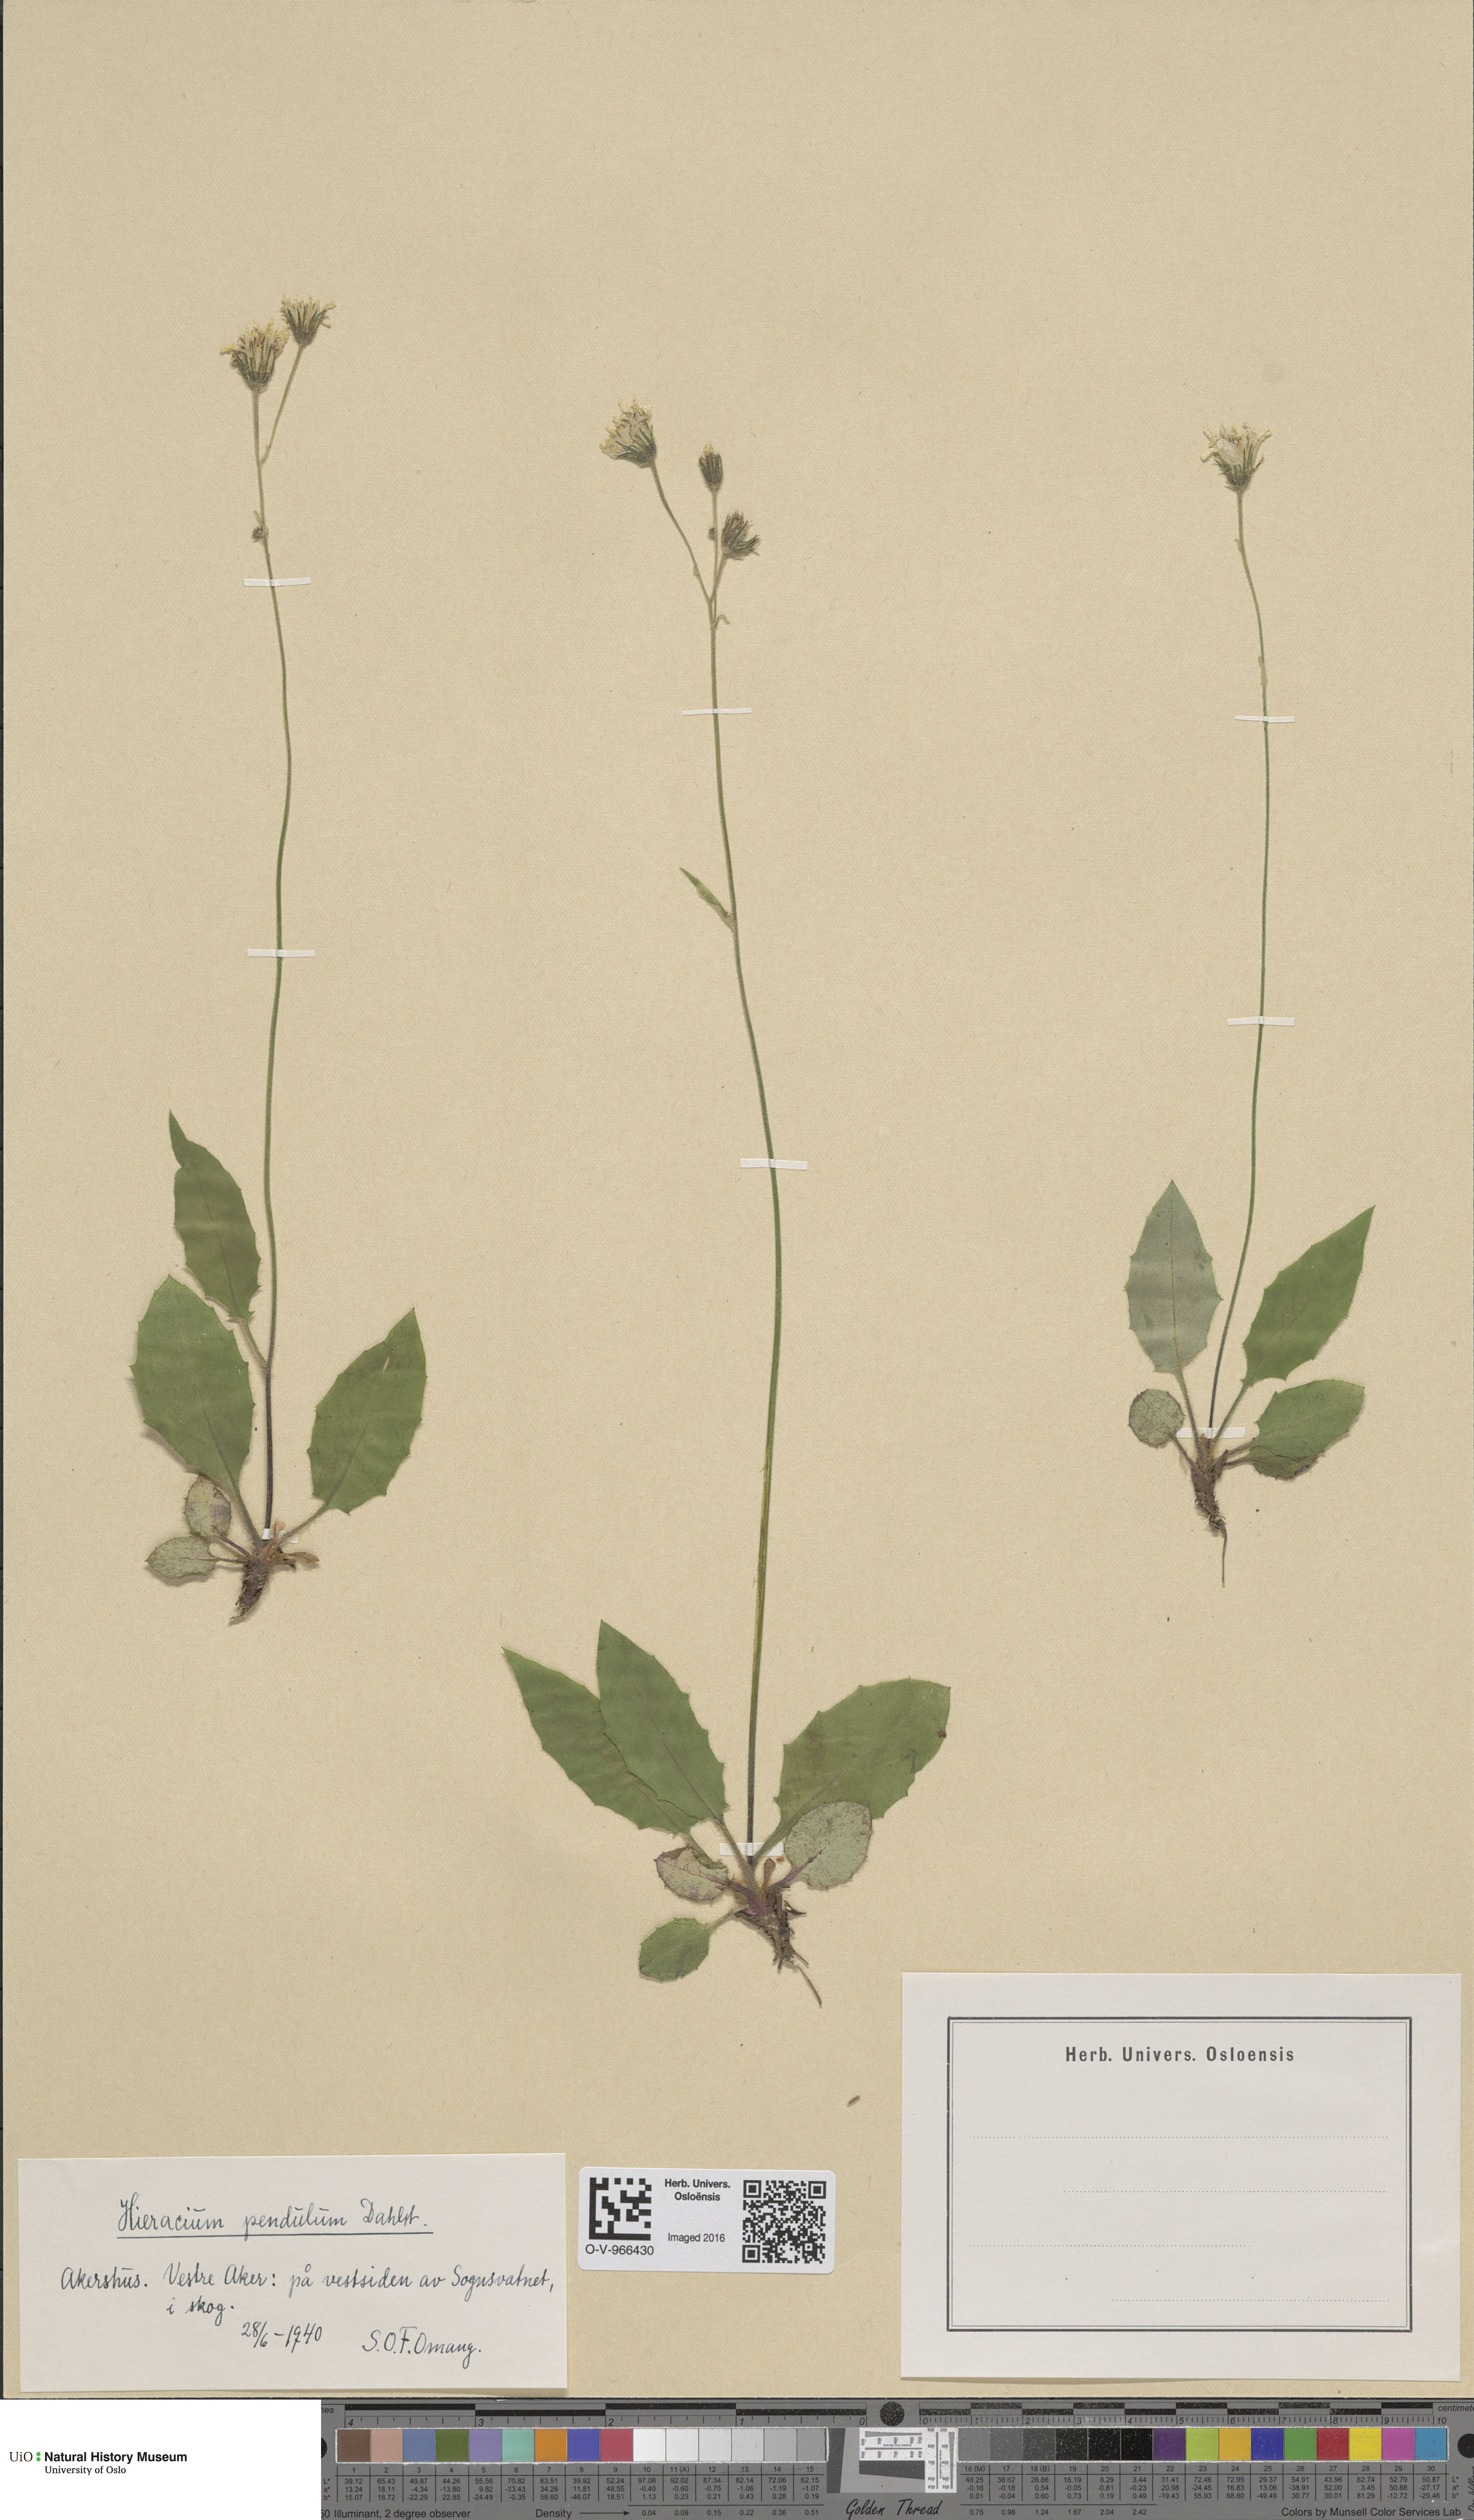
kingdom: Plantae
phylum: Tracheophyta
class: Magnoliopsida
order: Asterales
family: Asteraceae
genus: Hieracium
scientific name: Hieracium pendulum
